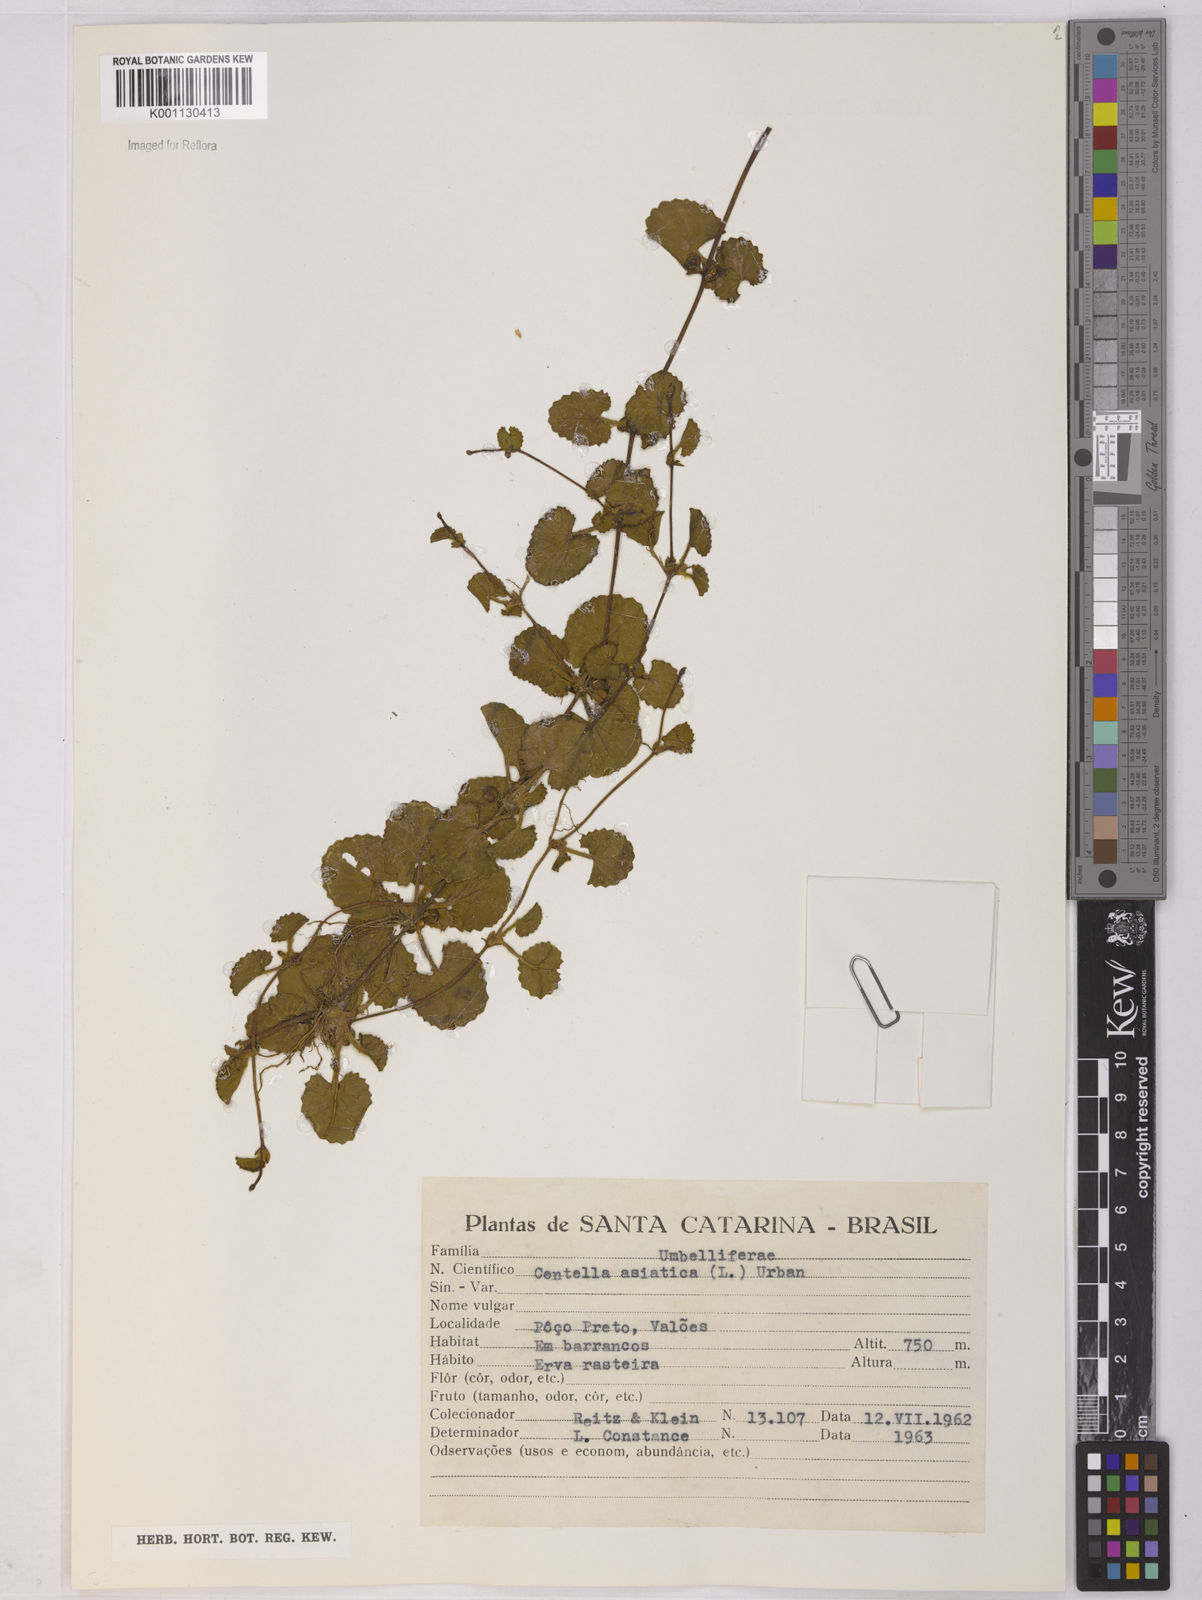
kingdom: Plantae
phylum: Tracheophyta
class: Magnoliopsida
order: Apiales
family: Apiaceae
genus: Centella
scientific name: Centella asiatica
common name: Spadeleaf
